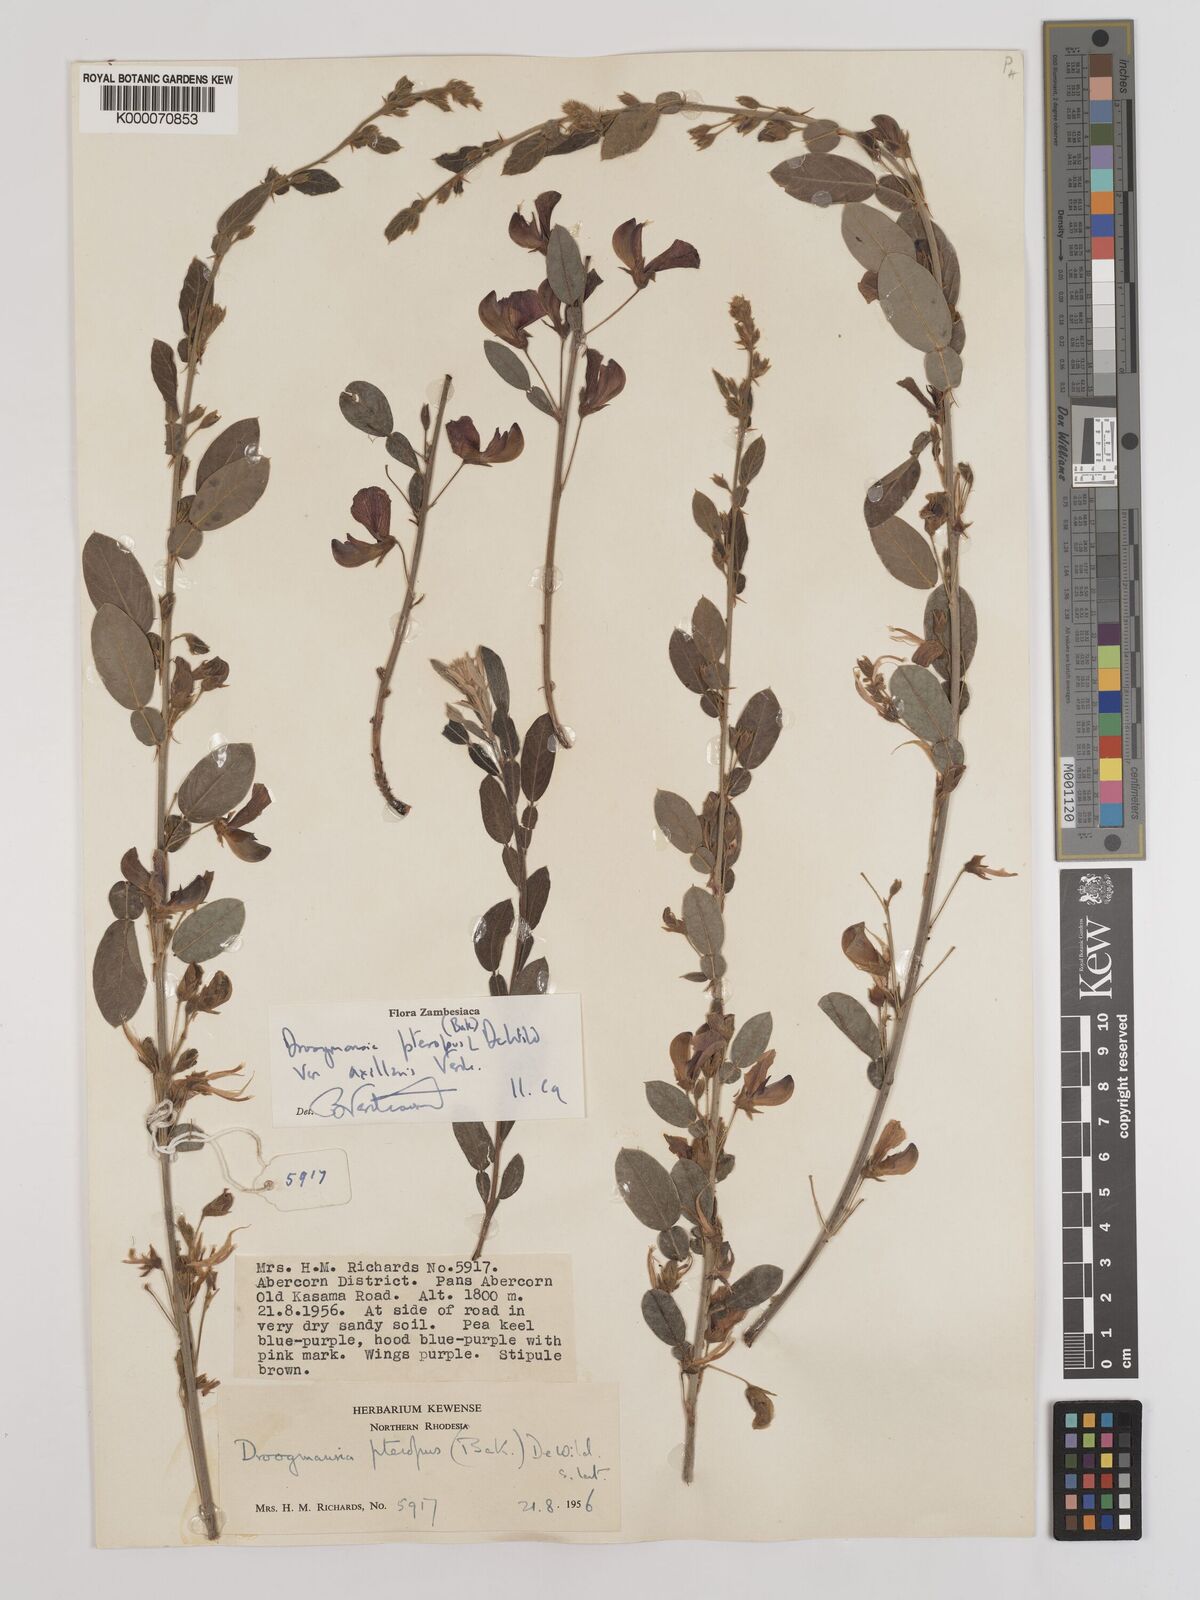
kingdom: Plantae
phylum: Tracheophyta
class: Magnoliopsida
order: Fabales
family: Fabaceae
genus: Droogmansia
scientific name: Droogmansia pteropus
